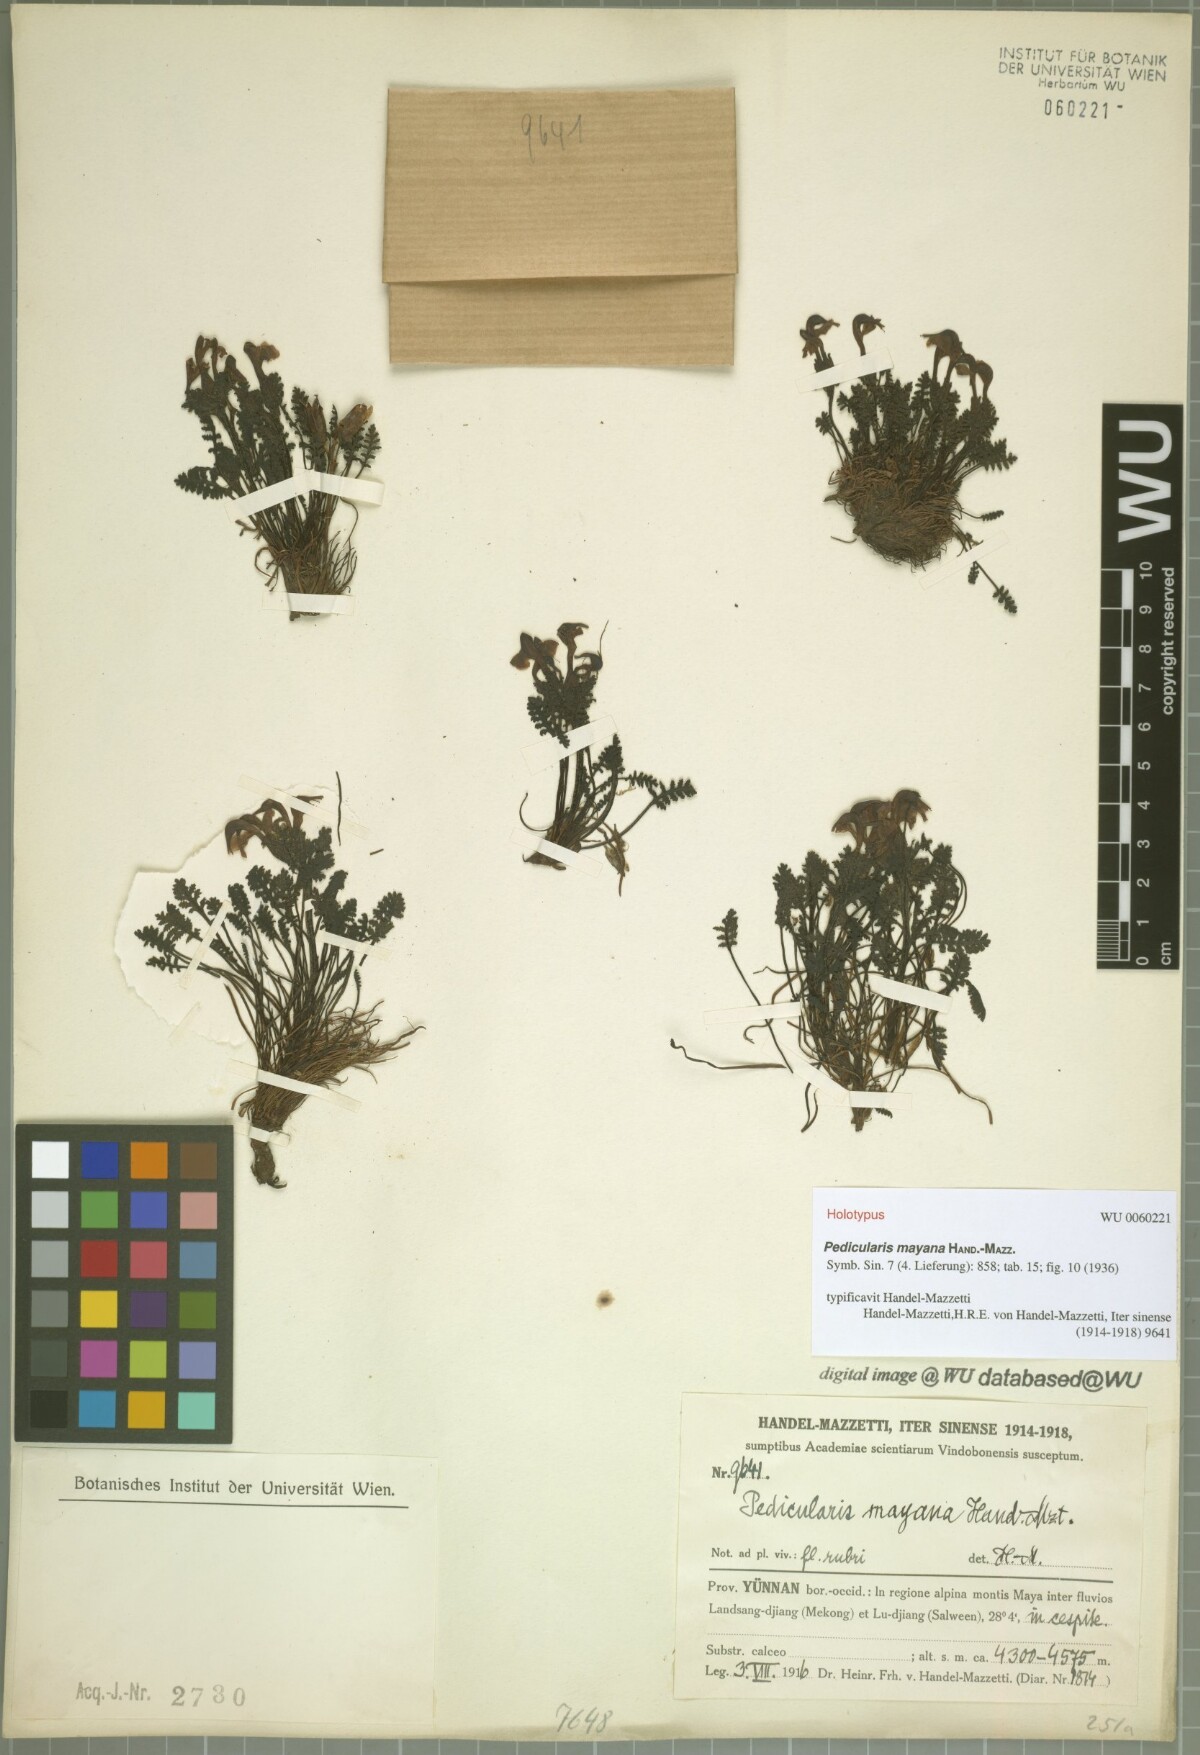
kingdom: Plantae
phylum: Tracheophyta
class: Magnoliopsida
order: Lamiales
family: Orobanchaceae
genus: Pedicularis
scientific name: Pedicularis mayana
